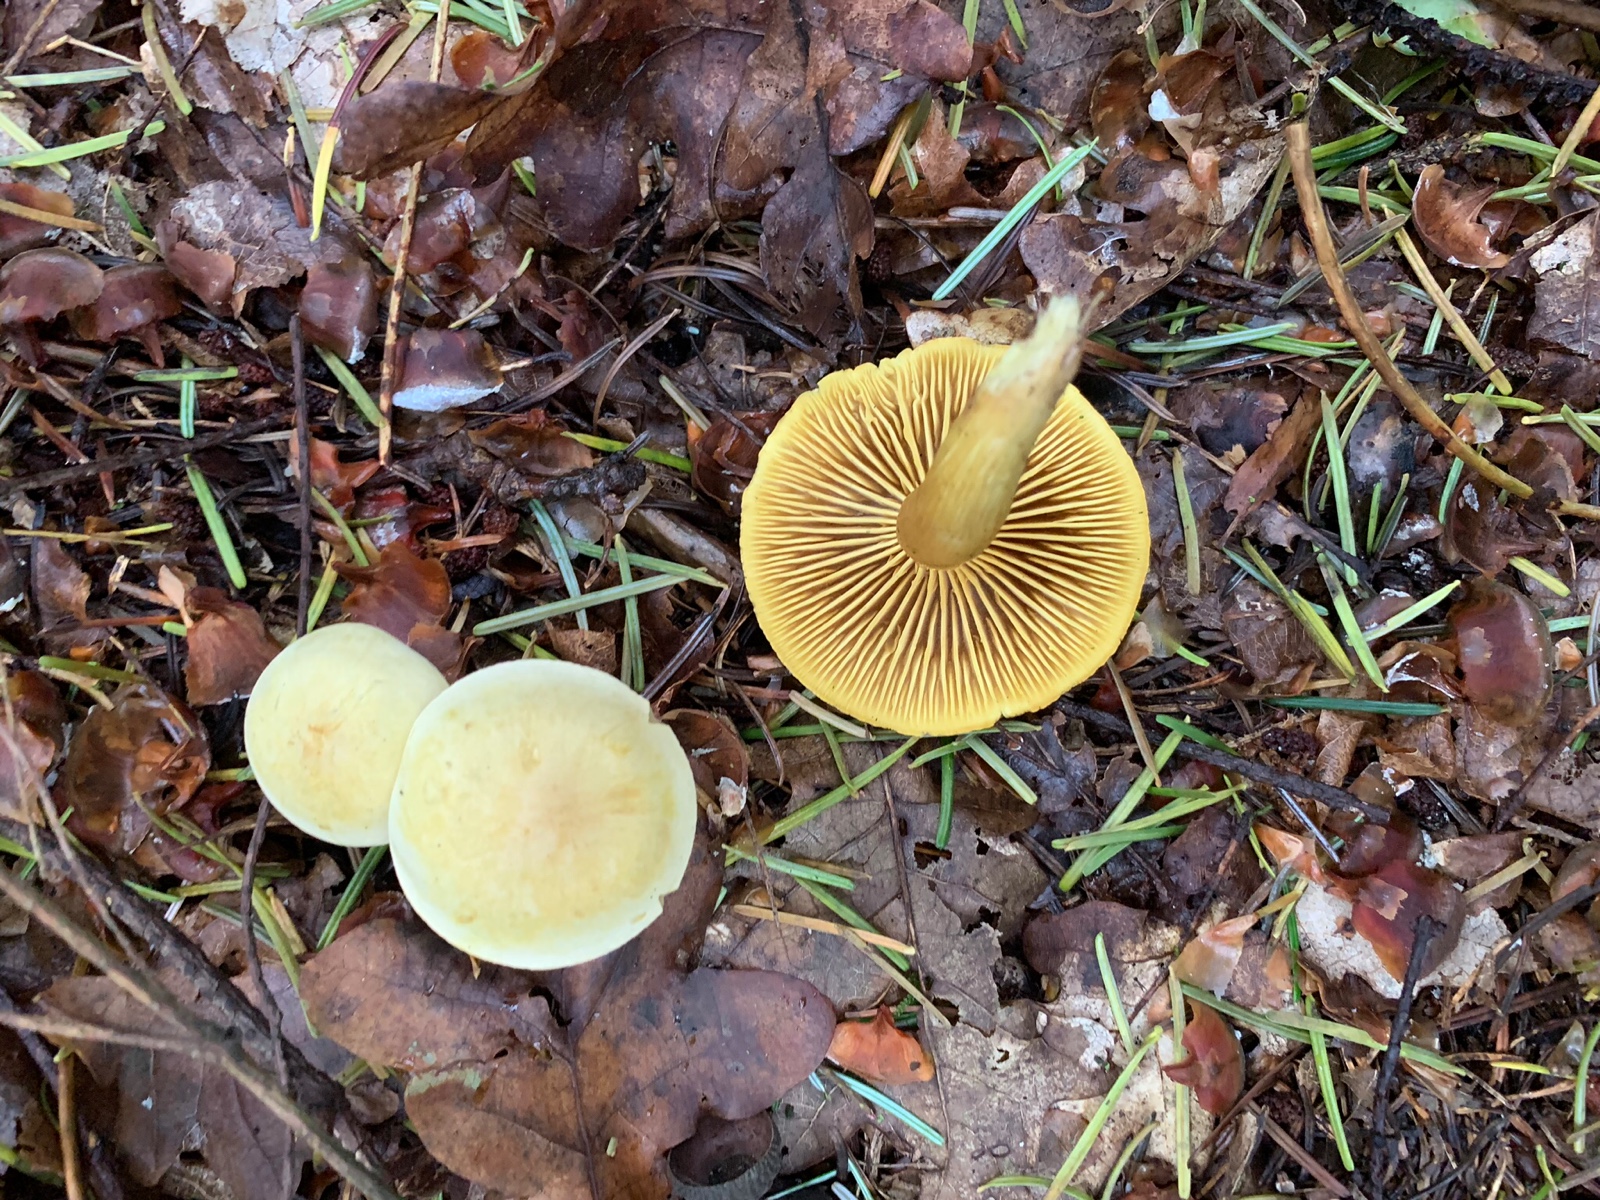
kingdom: Fungi
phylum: Basidiomycota
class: Agaricomycetes
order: Agaricales
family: Tricholomataceae
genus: Tricholoma
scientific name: Tricholoma sulphureum
